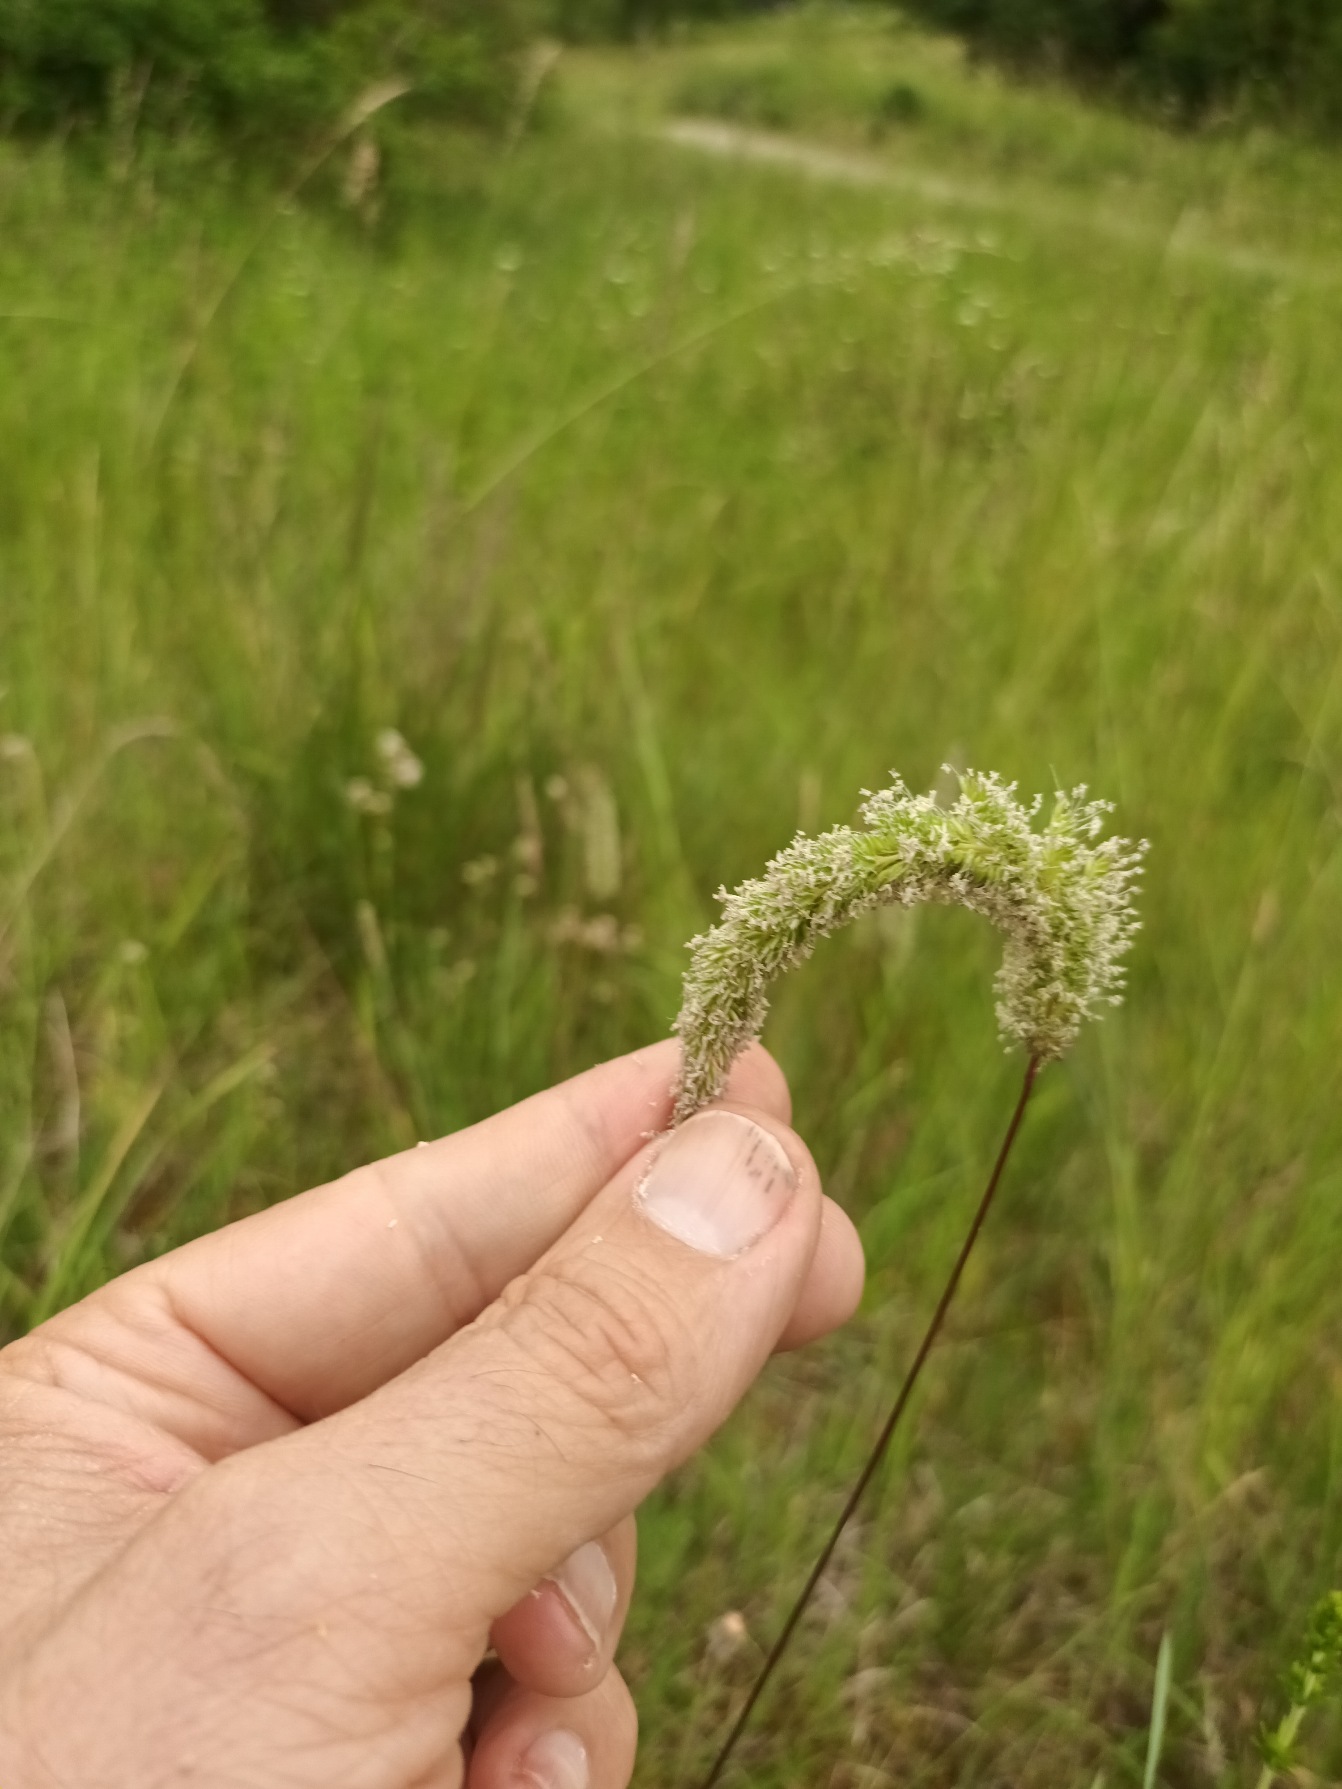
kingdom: Plantae
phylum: Tracheophyta
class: Liliopsida
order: Poales
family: Poaceae
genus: Phleum
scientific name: Phleum phleoides
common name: Glat rottehale
